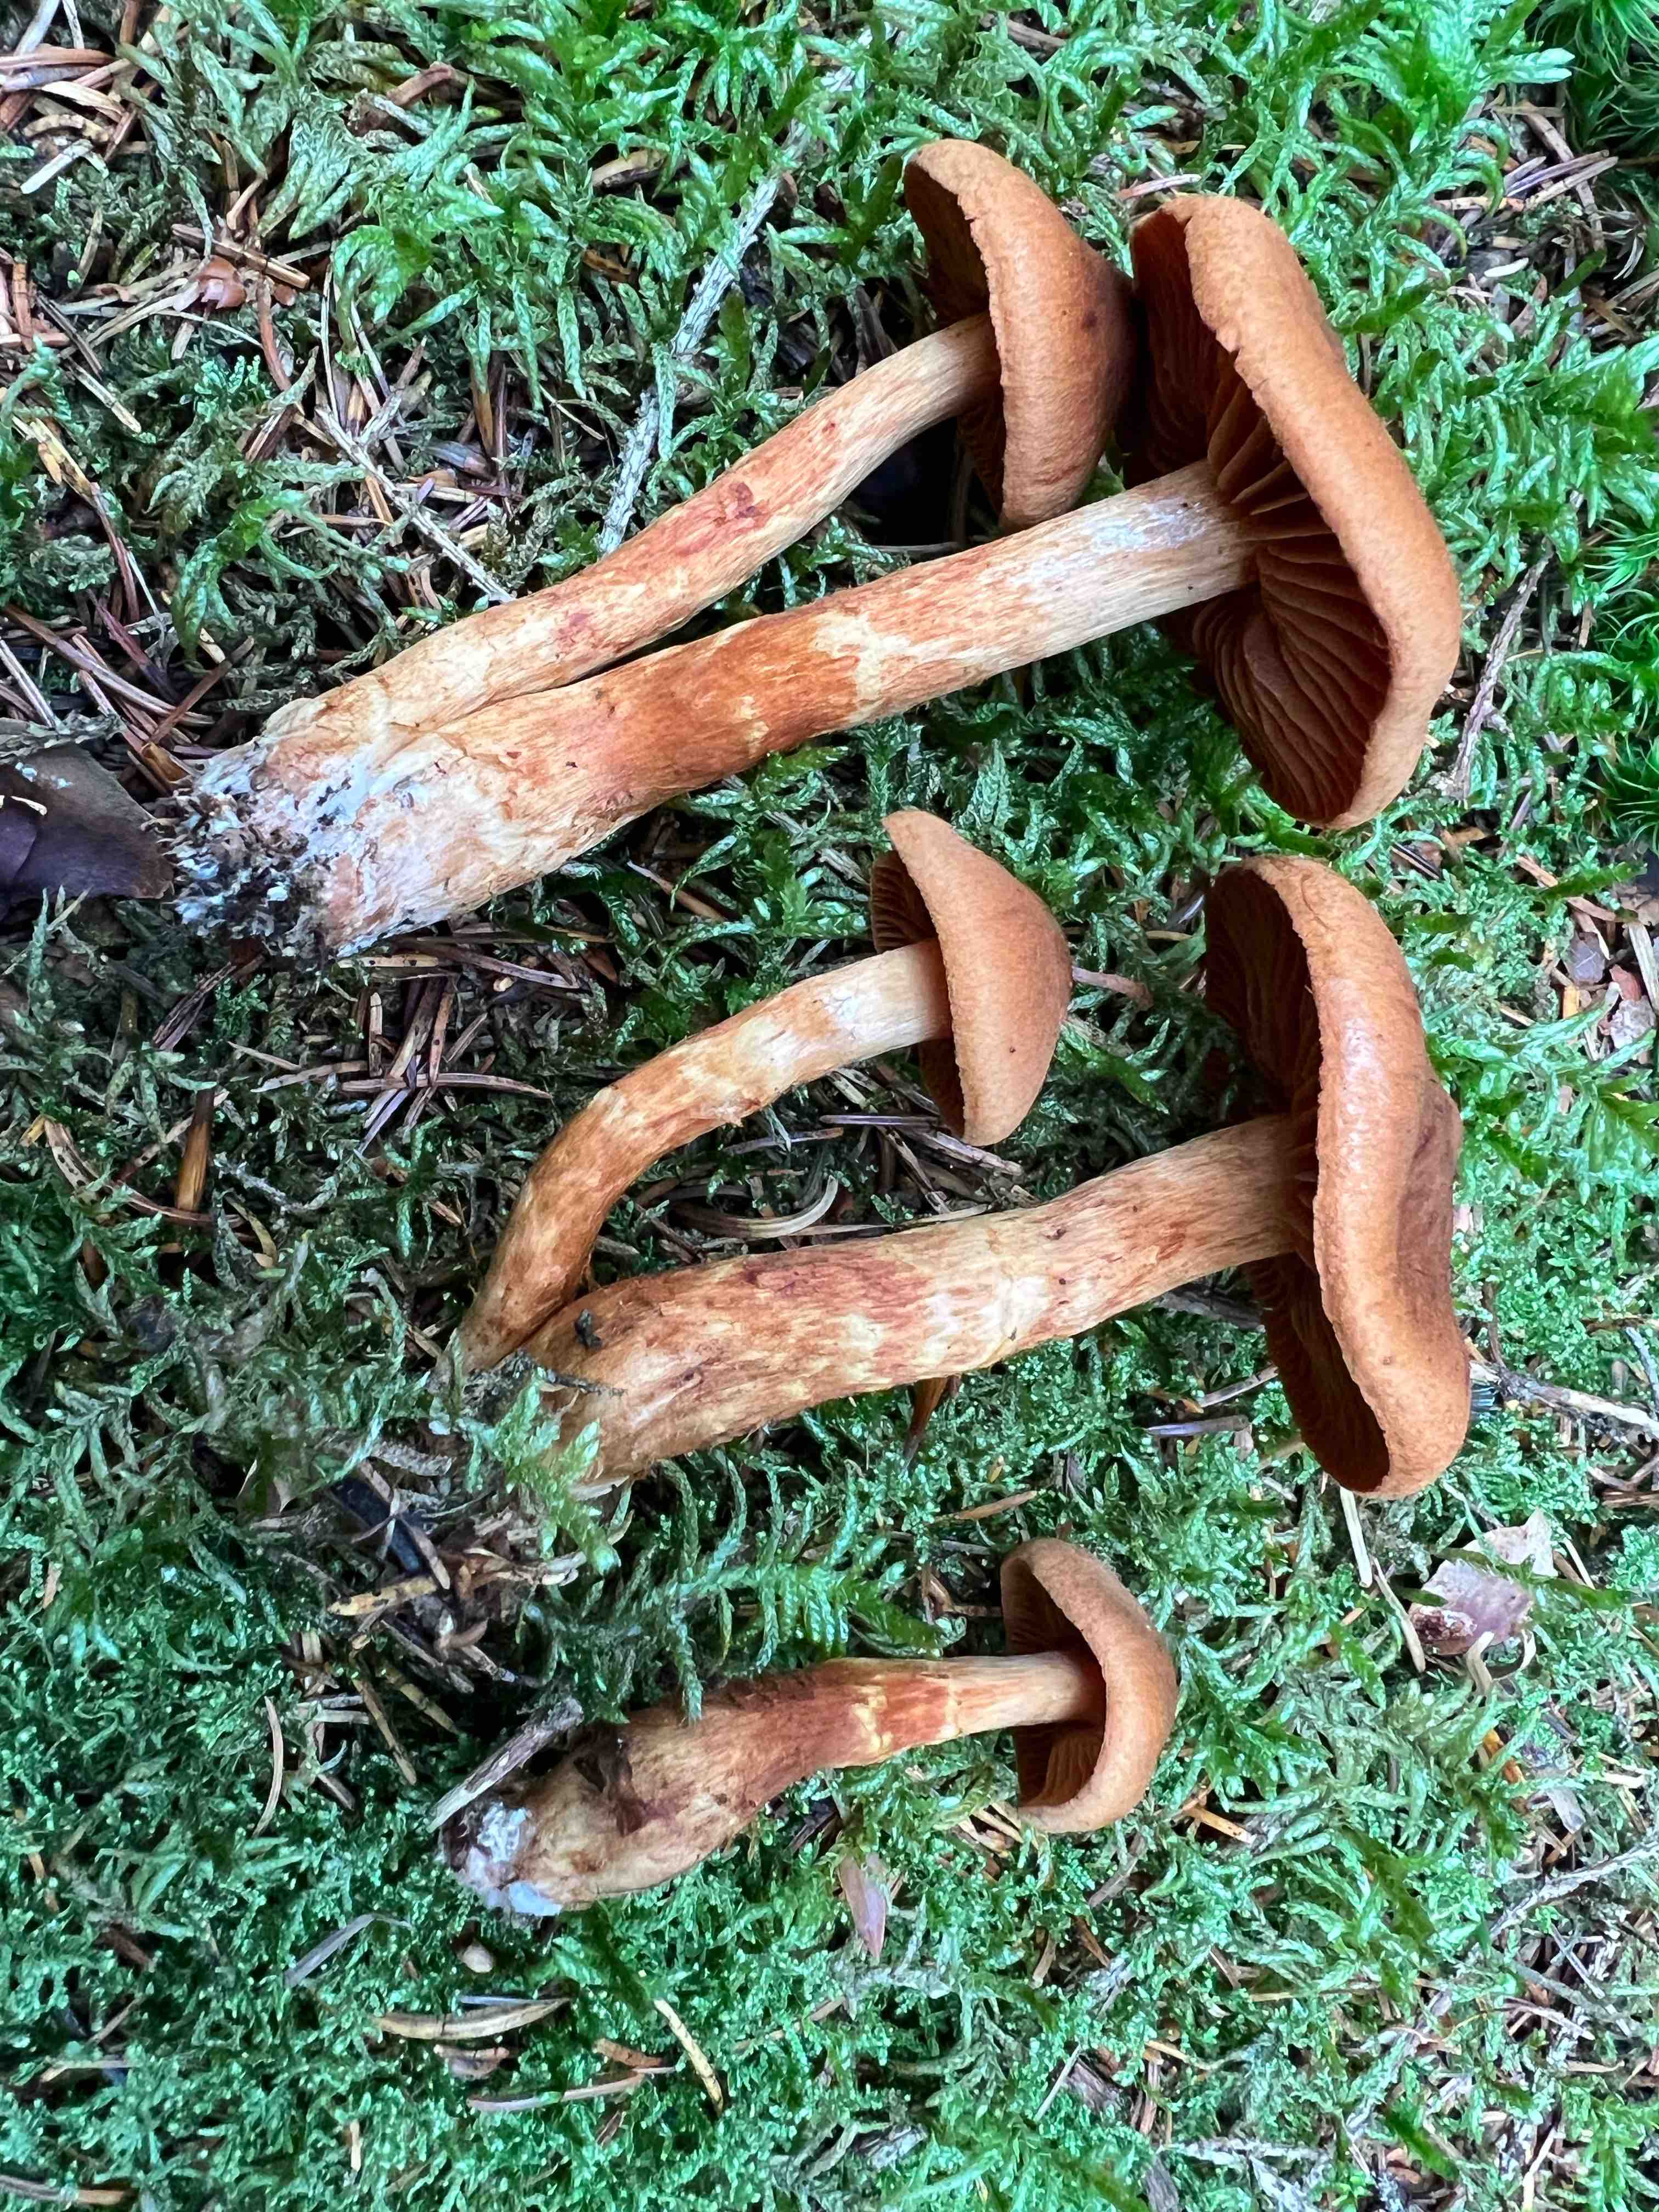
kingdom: Fungi
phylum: Basidiomycota
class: Agaricomycetes
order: Agaricales
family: Cortinariaceae
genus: Cortinarius
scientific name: Cortinarius rubellus
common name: puklet gift-slørhat
